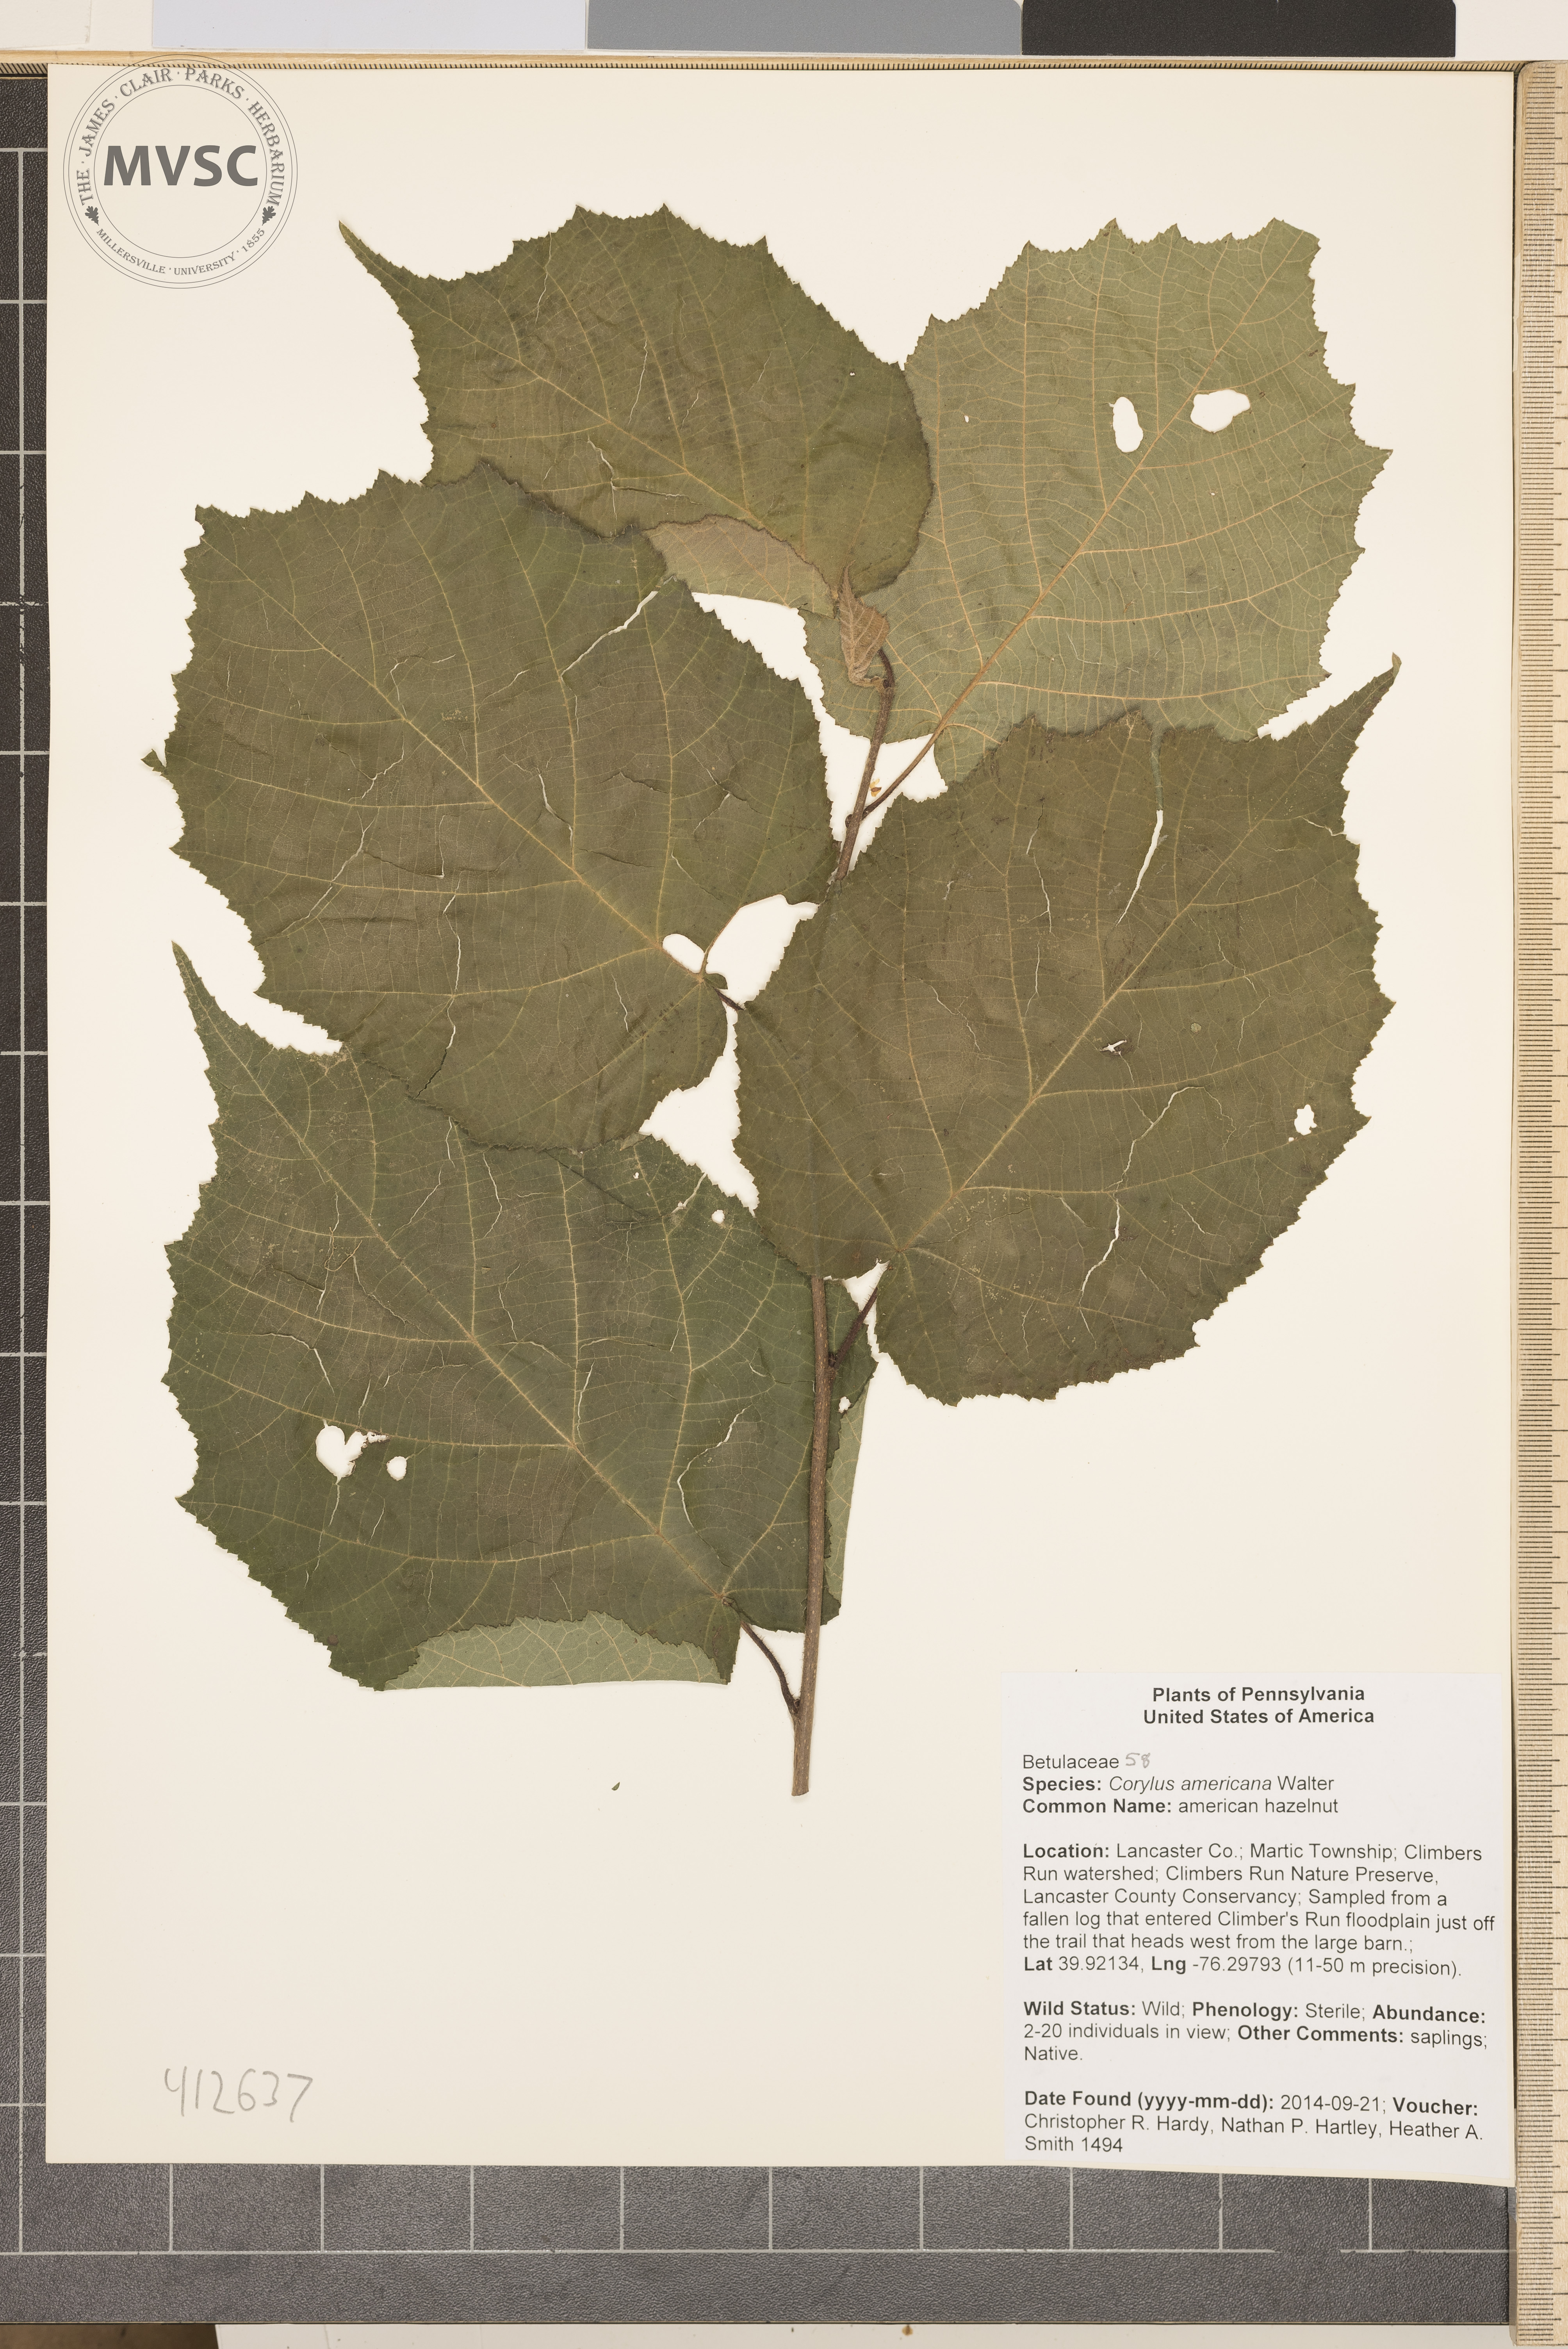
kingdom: Plantae
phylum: Tracheophyta
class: Magnoliopsida
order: Fagales
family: Betulaceae
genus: Corylus
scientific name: Corylus americana
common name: American hazelnut
